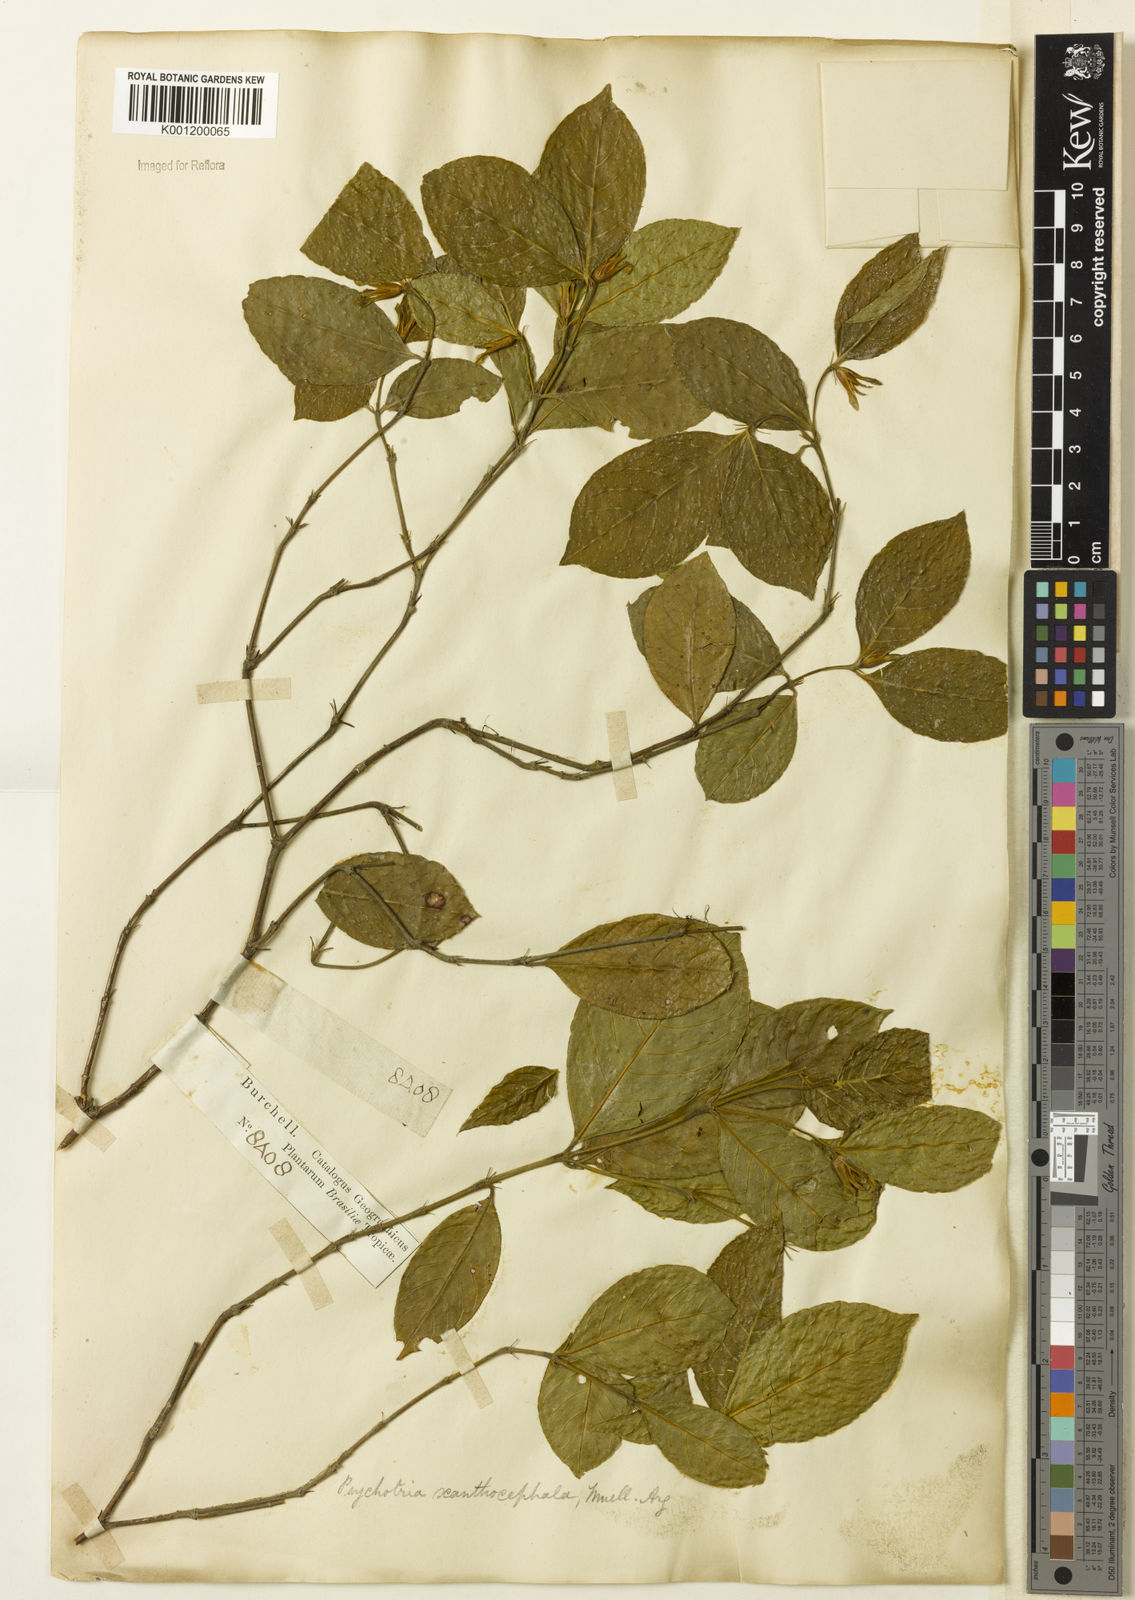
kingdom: Plantae
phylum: Tracheophyta
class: Magnoliopsida
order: Gentianales
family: Rubiaceae
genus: Psychotria
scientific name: Psychotria
